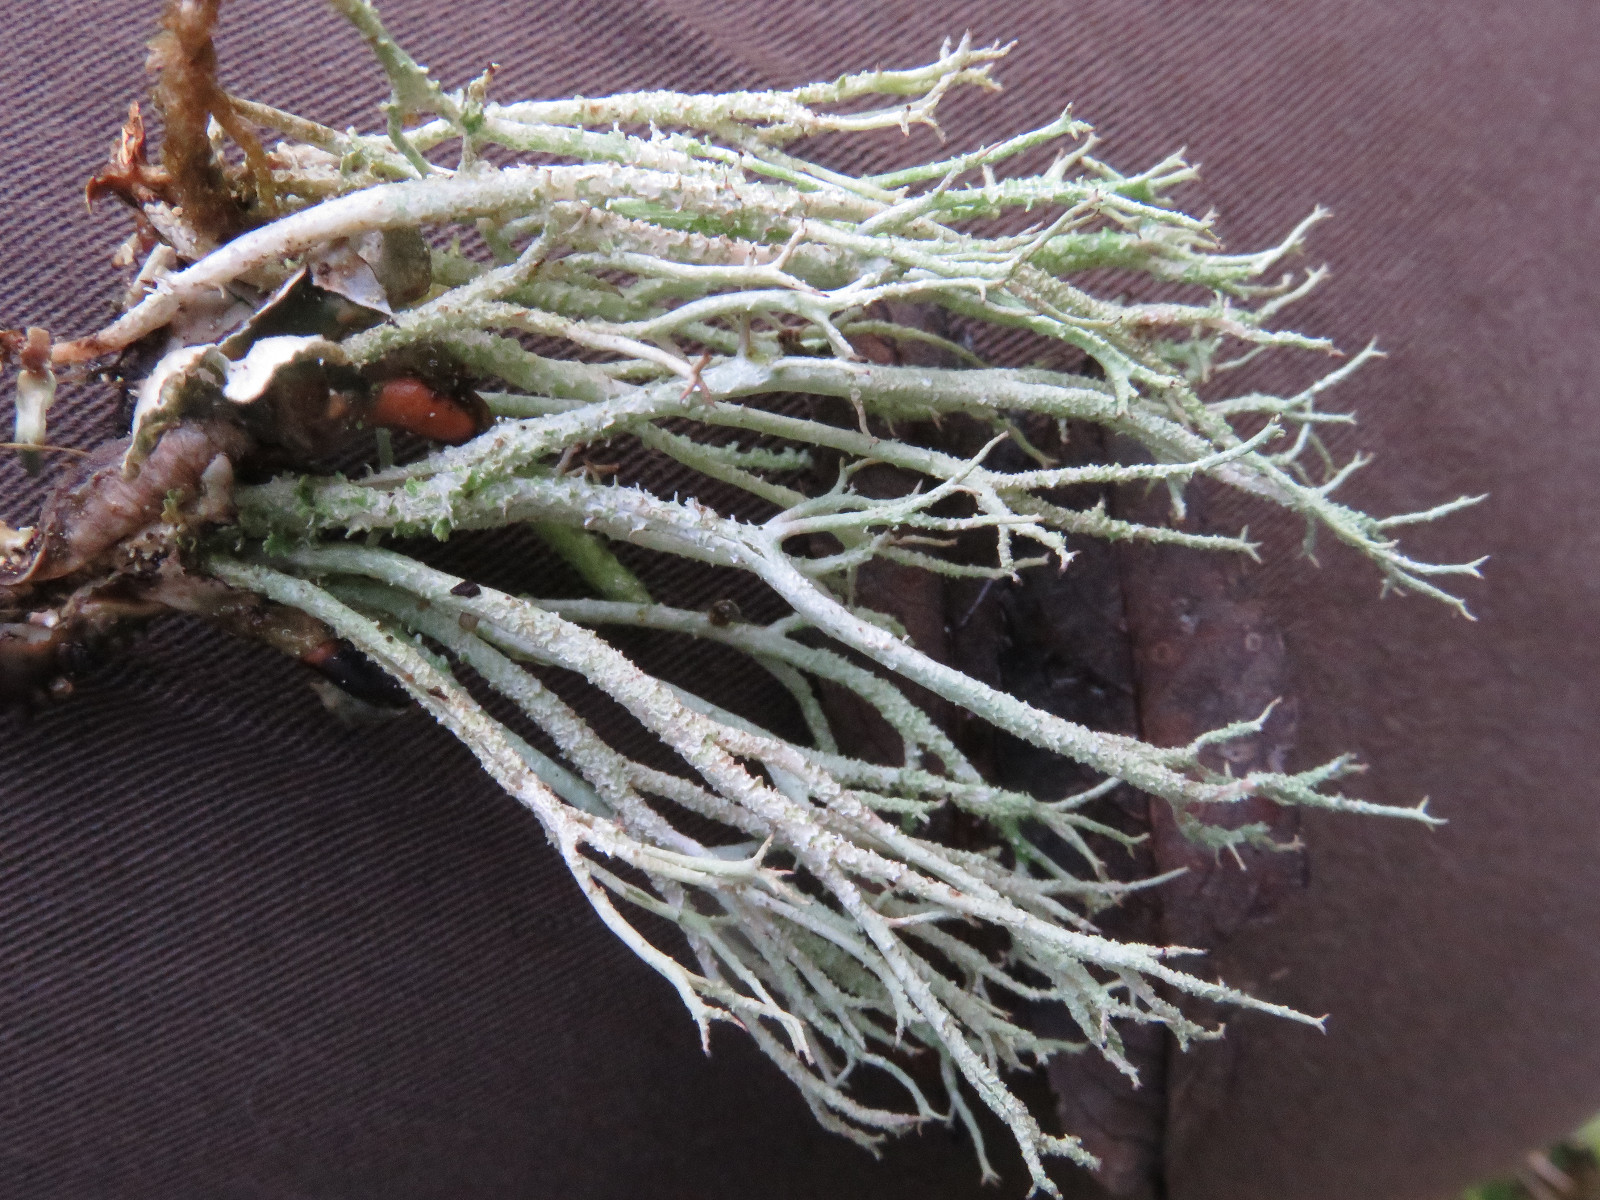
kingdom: Fungi
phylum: Ascomycota
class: Lecanoromycetes
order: Lecanorales
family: Cladoniaceae
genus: Cladonia
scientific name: Cladonia scabriuscula
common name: ru bægerlav
